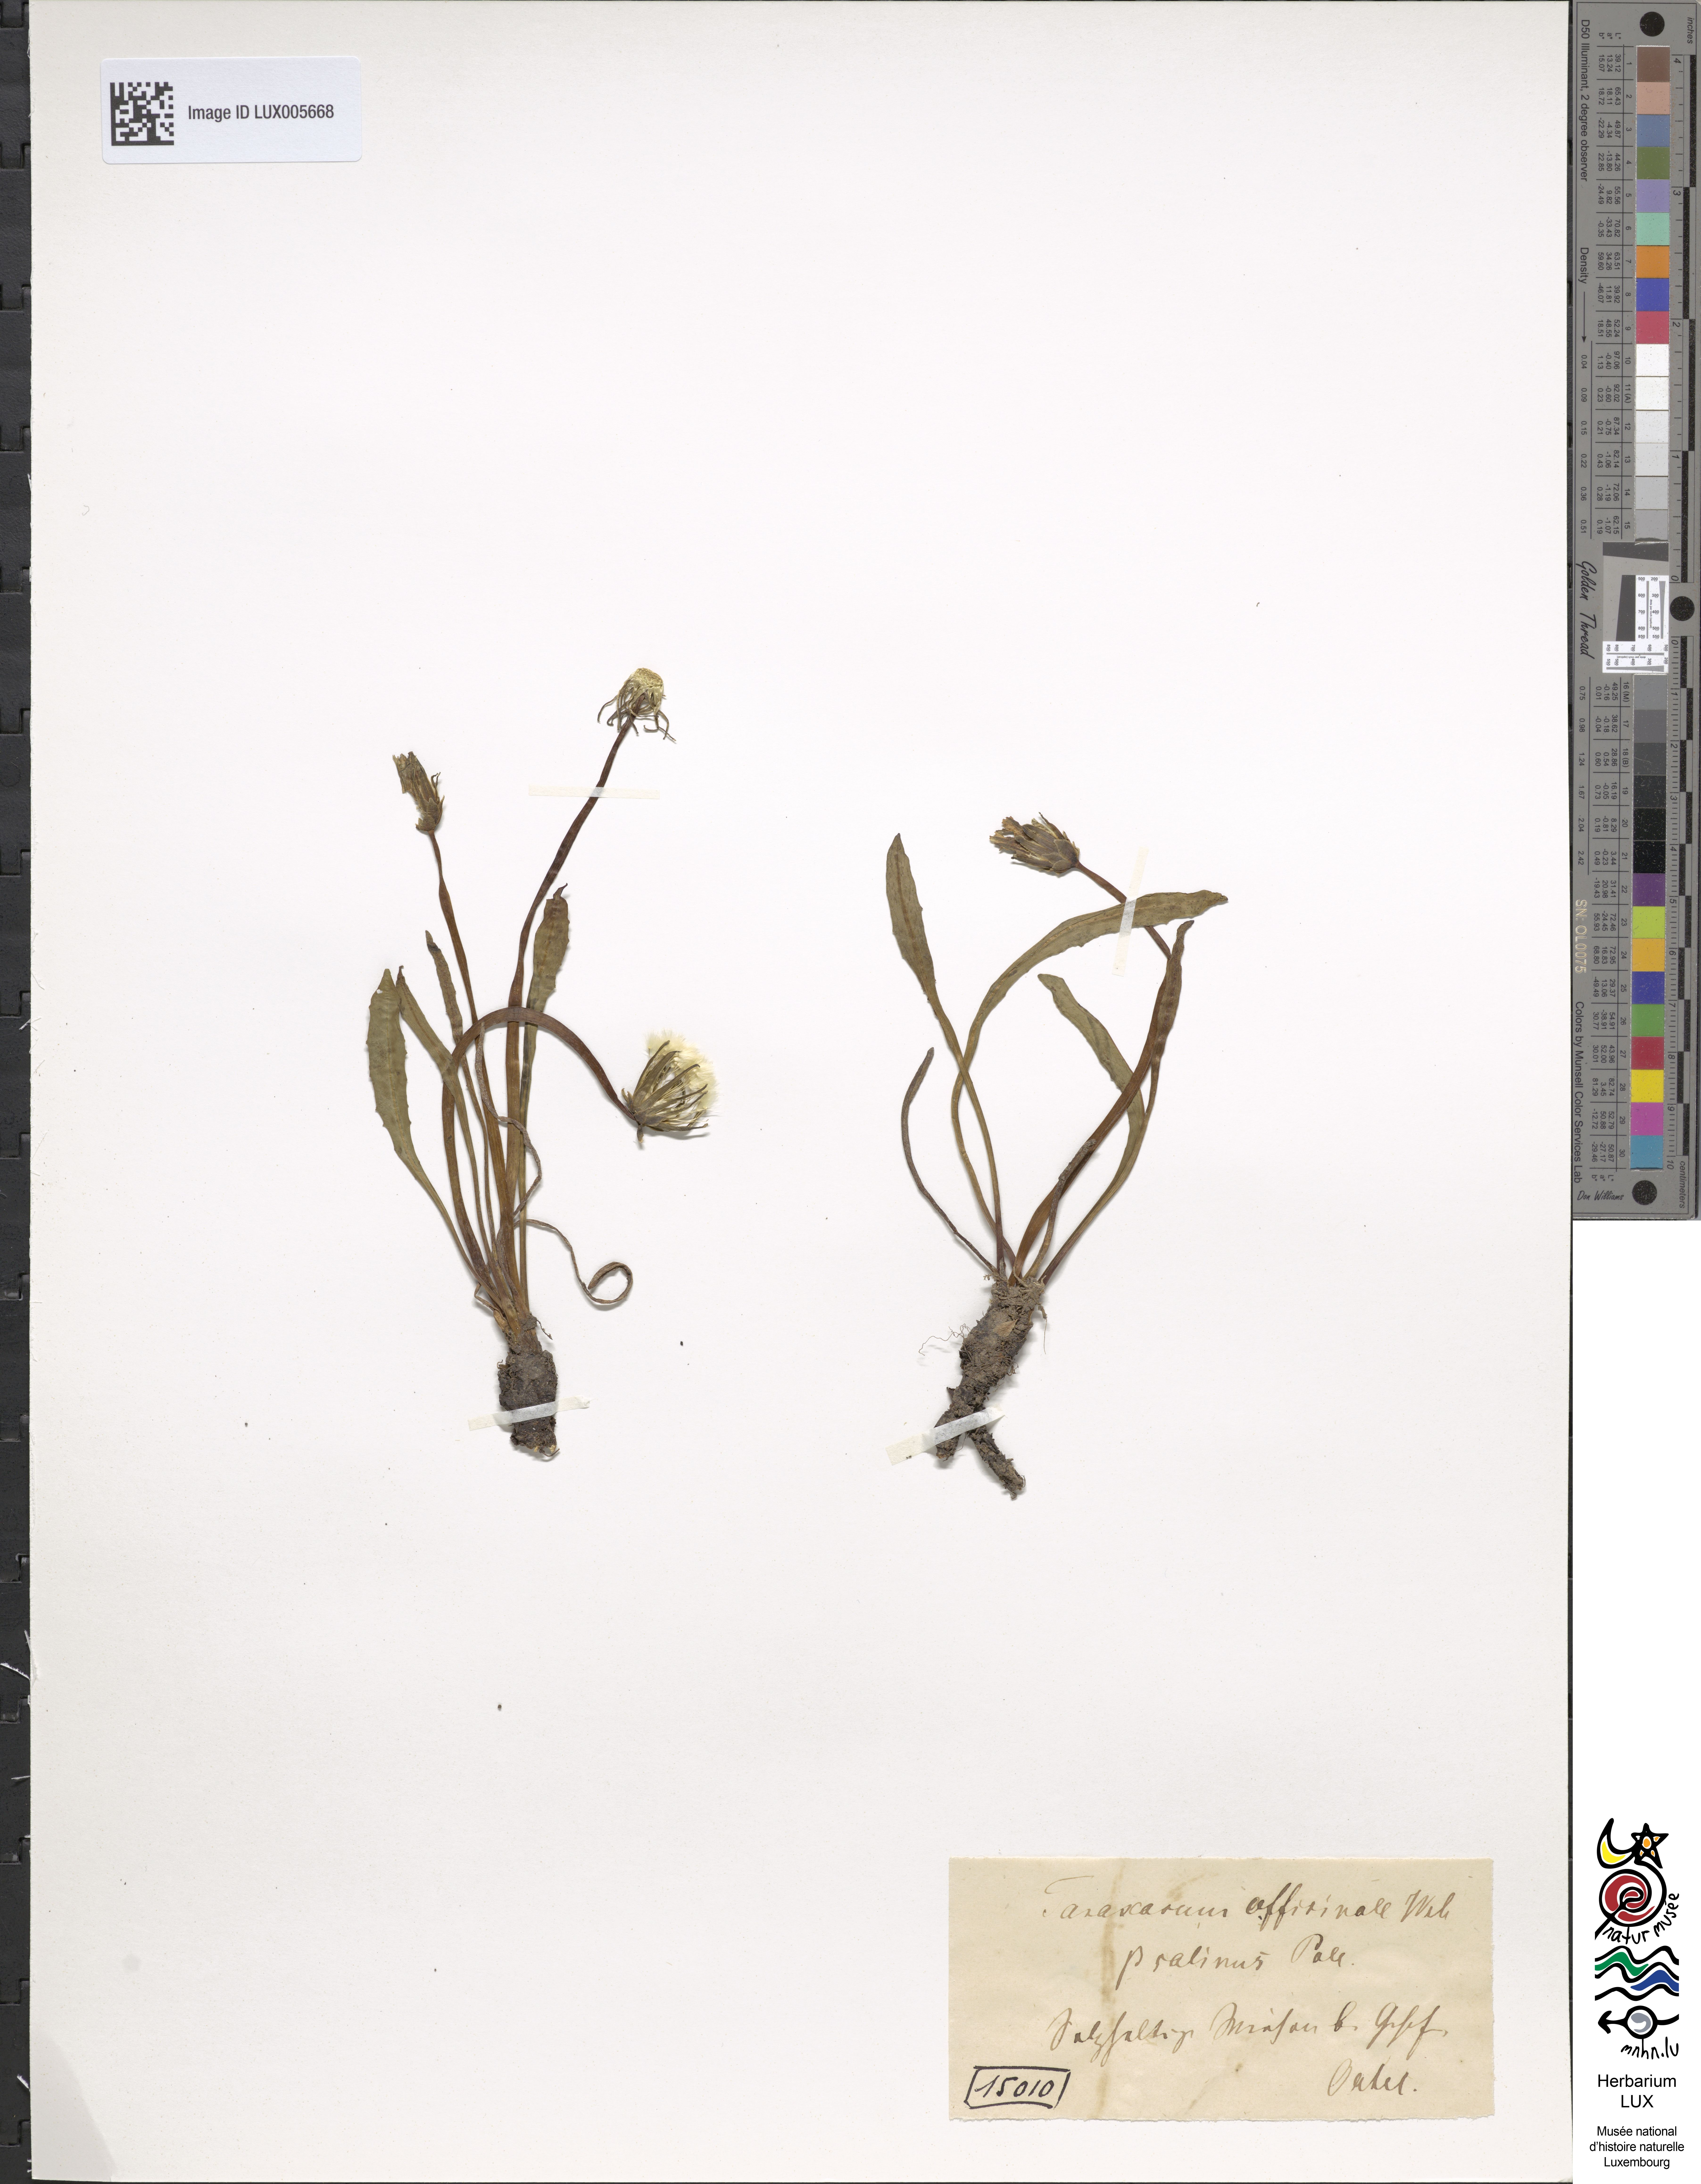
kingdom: Plantae
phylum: Tracheophyta
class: Magnoliopsida
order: Asterales
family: Asteraceae
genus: Taraxacum
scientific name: Taraxacum palustre
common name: Marsh dandelion
